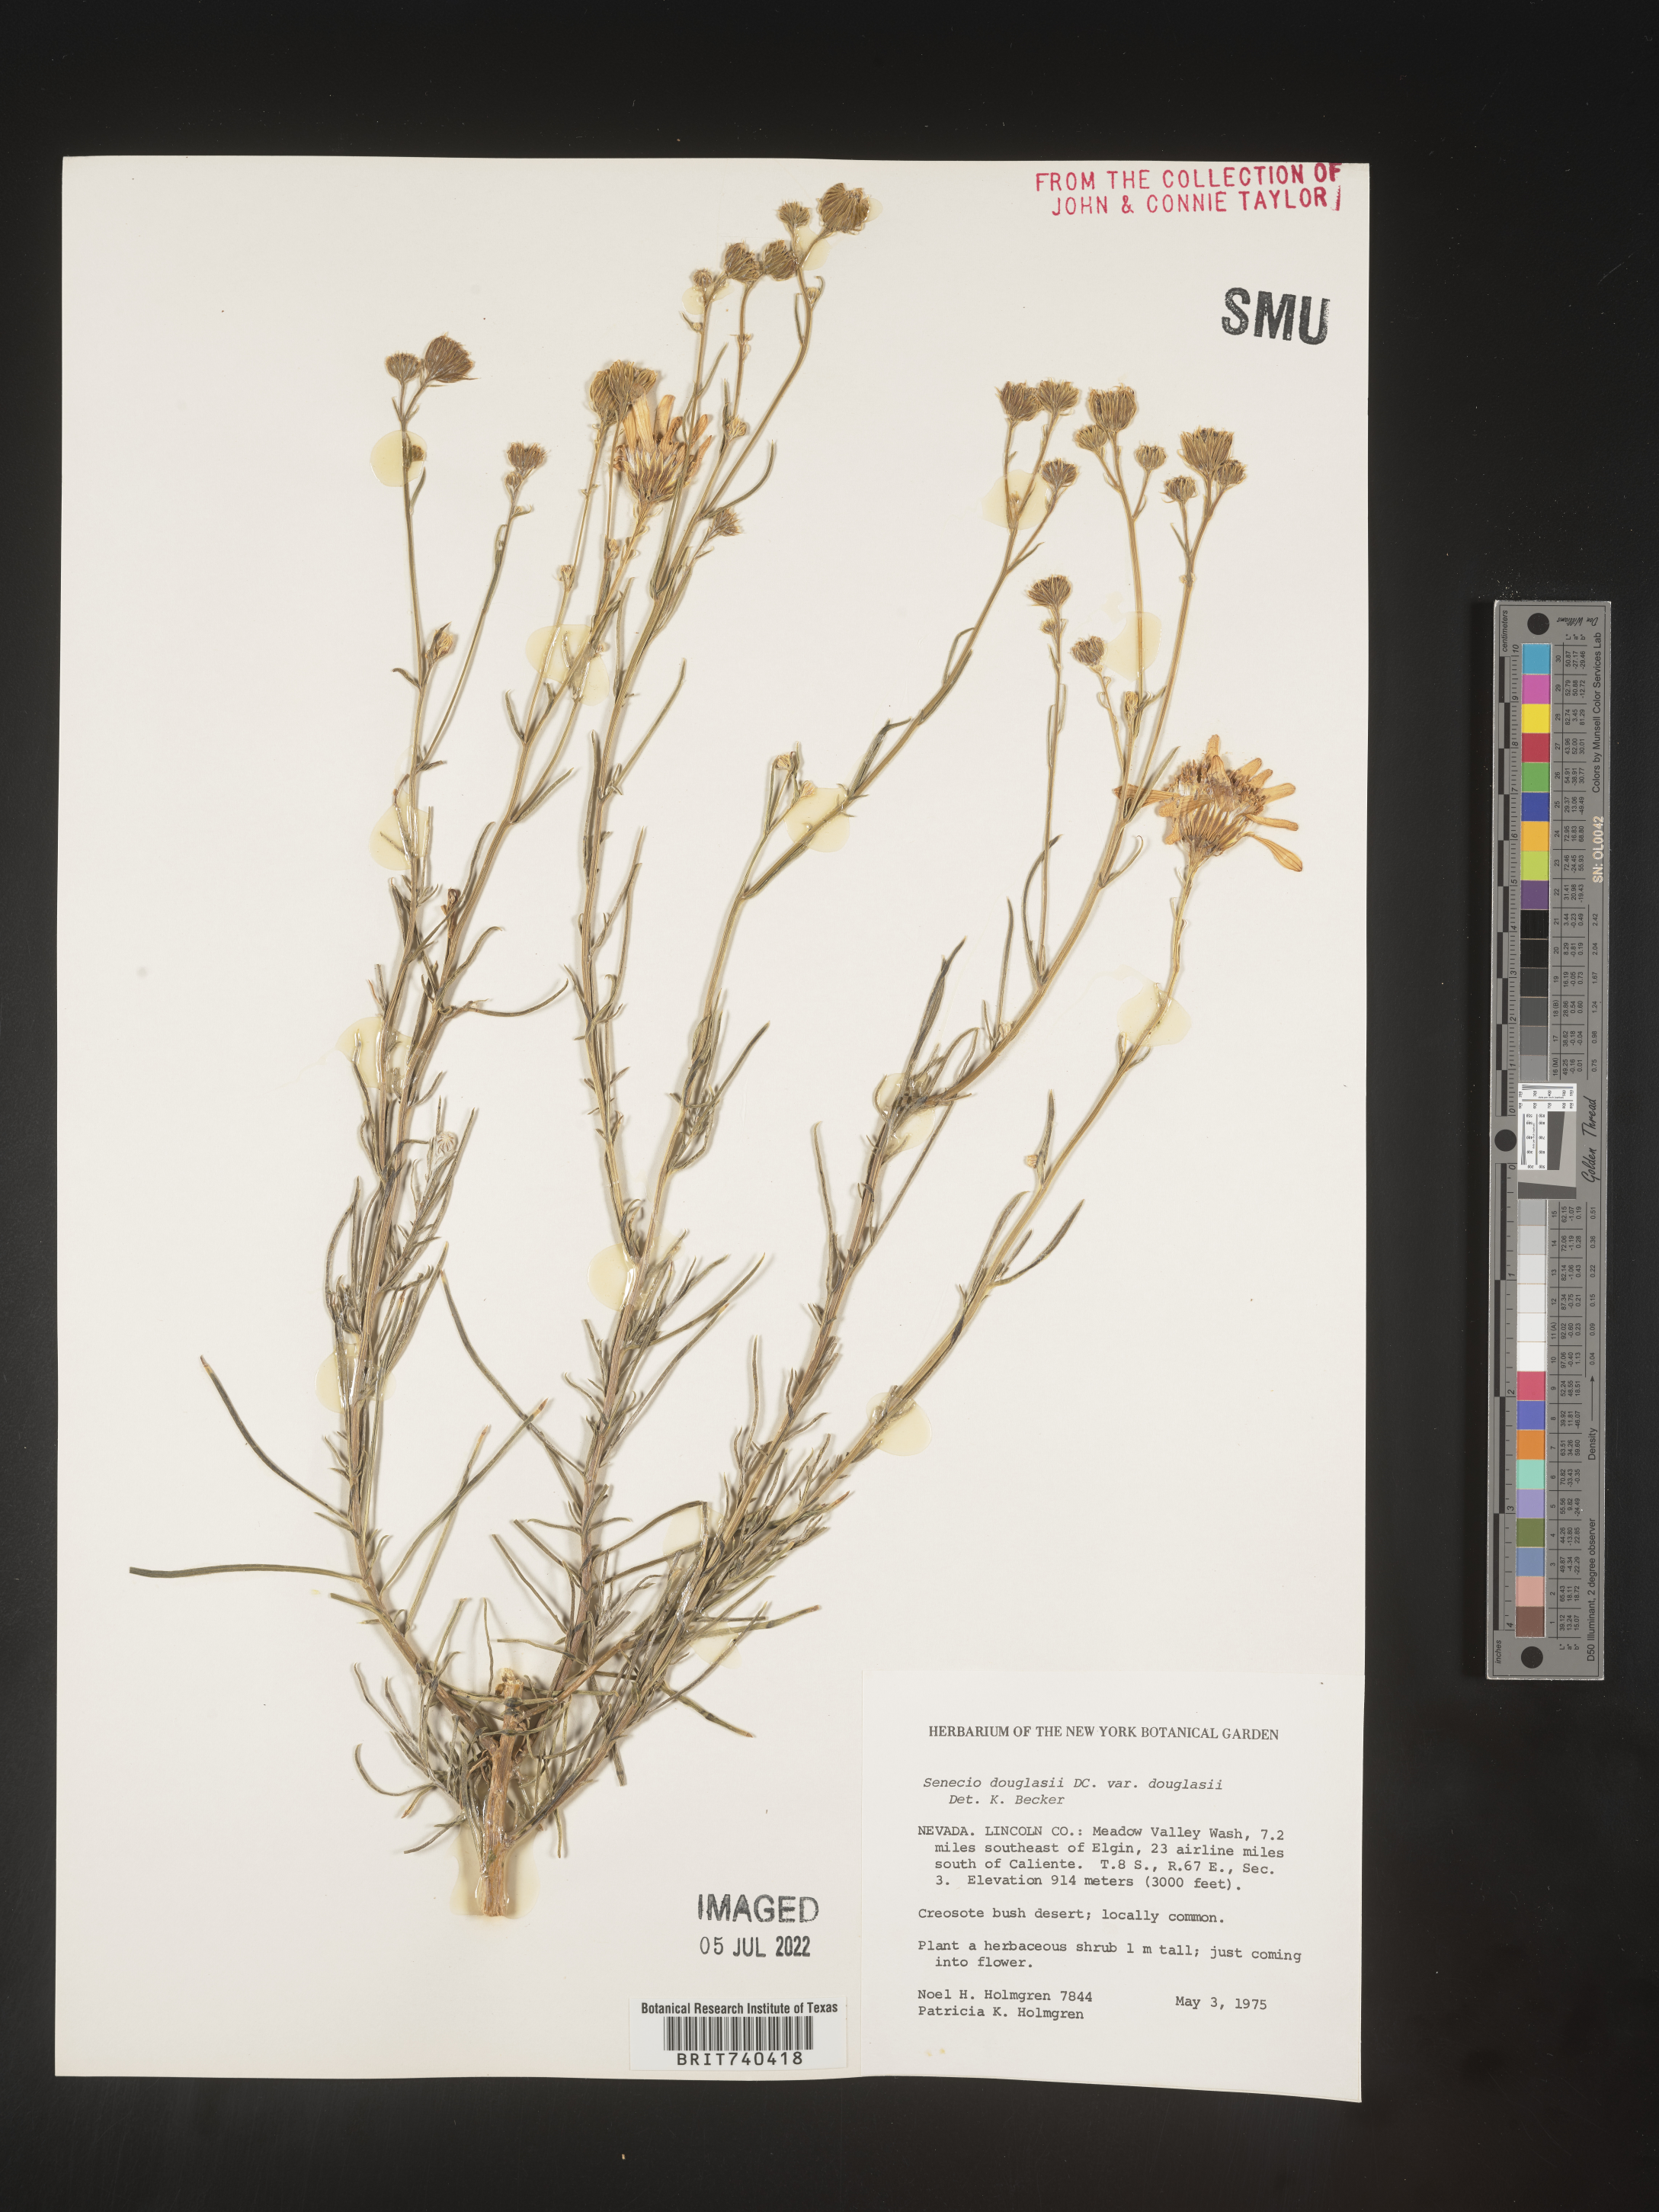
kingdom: Plantae
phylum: Tracheophyta
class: Magnoliopsida
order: Asterales
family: Asteraceae
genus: Senecio
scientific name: Senecio flaccidus
